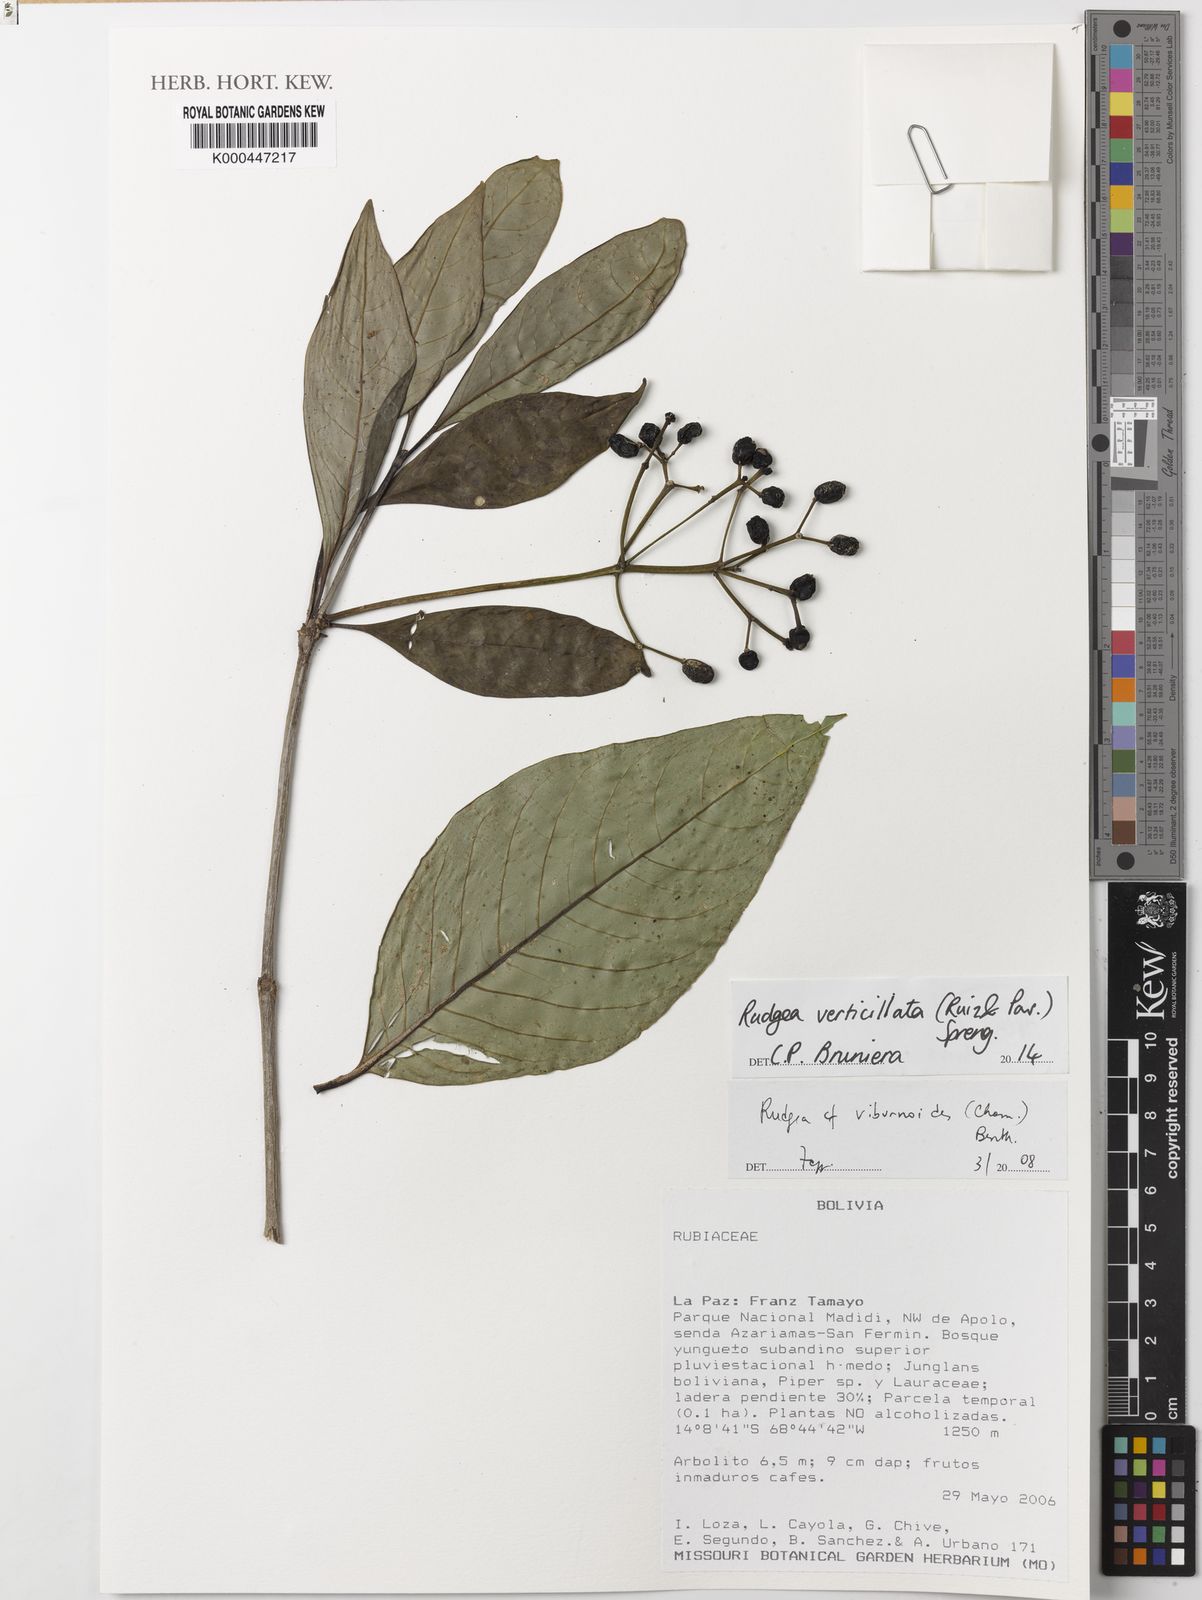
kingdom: Plantae
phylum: Tracheophyta
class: Magnoliopsida
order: Gentianales
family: Rubiaceae
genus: Rudgea
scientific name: Rudgea verticillata
